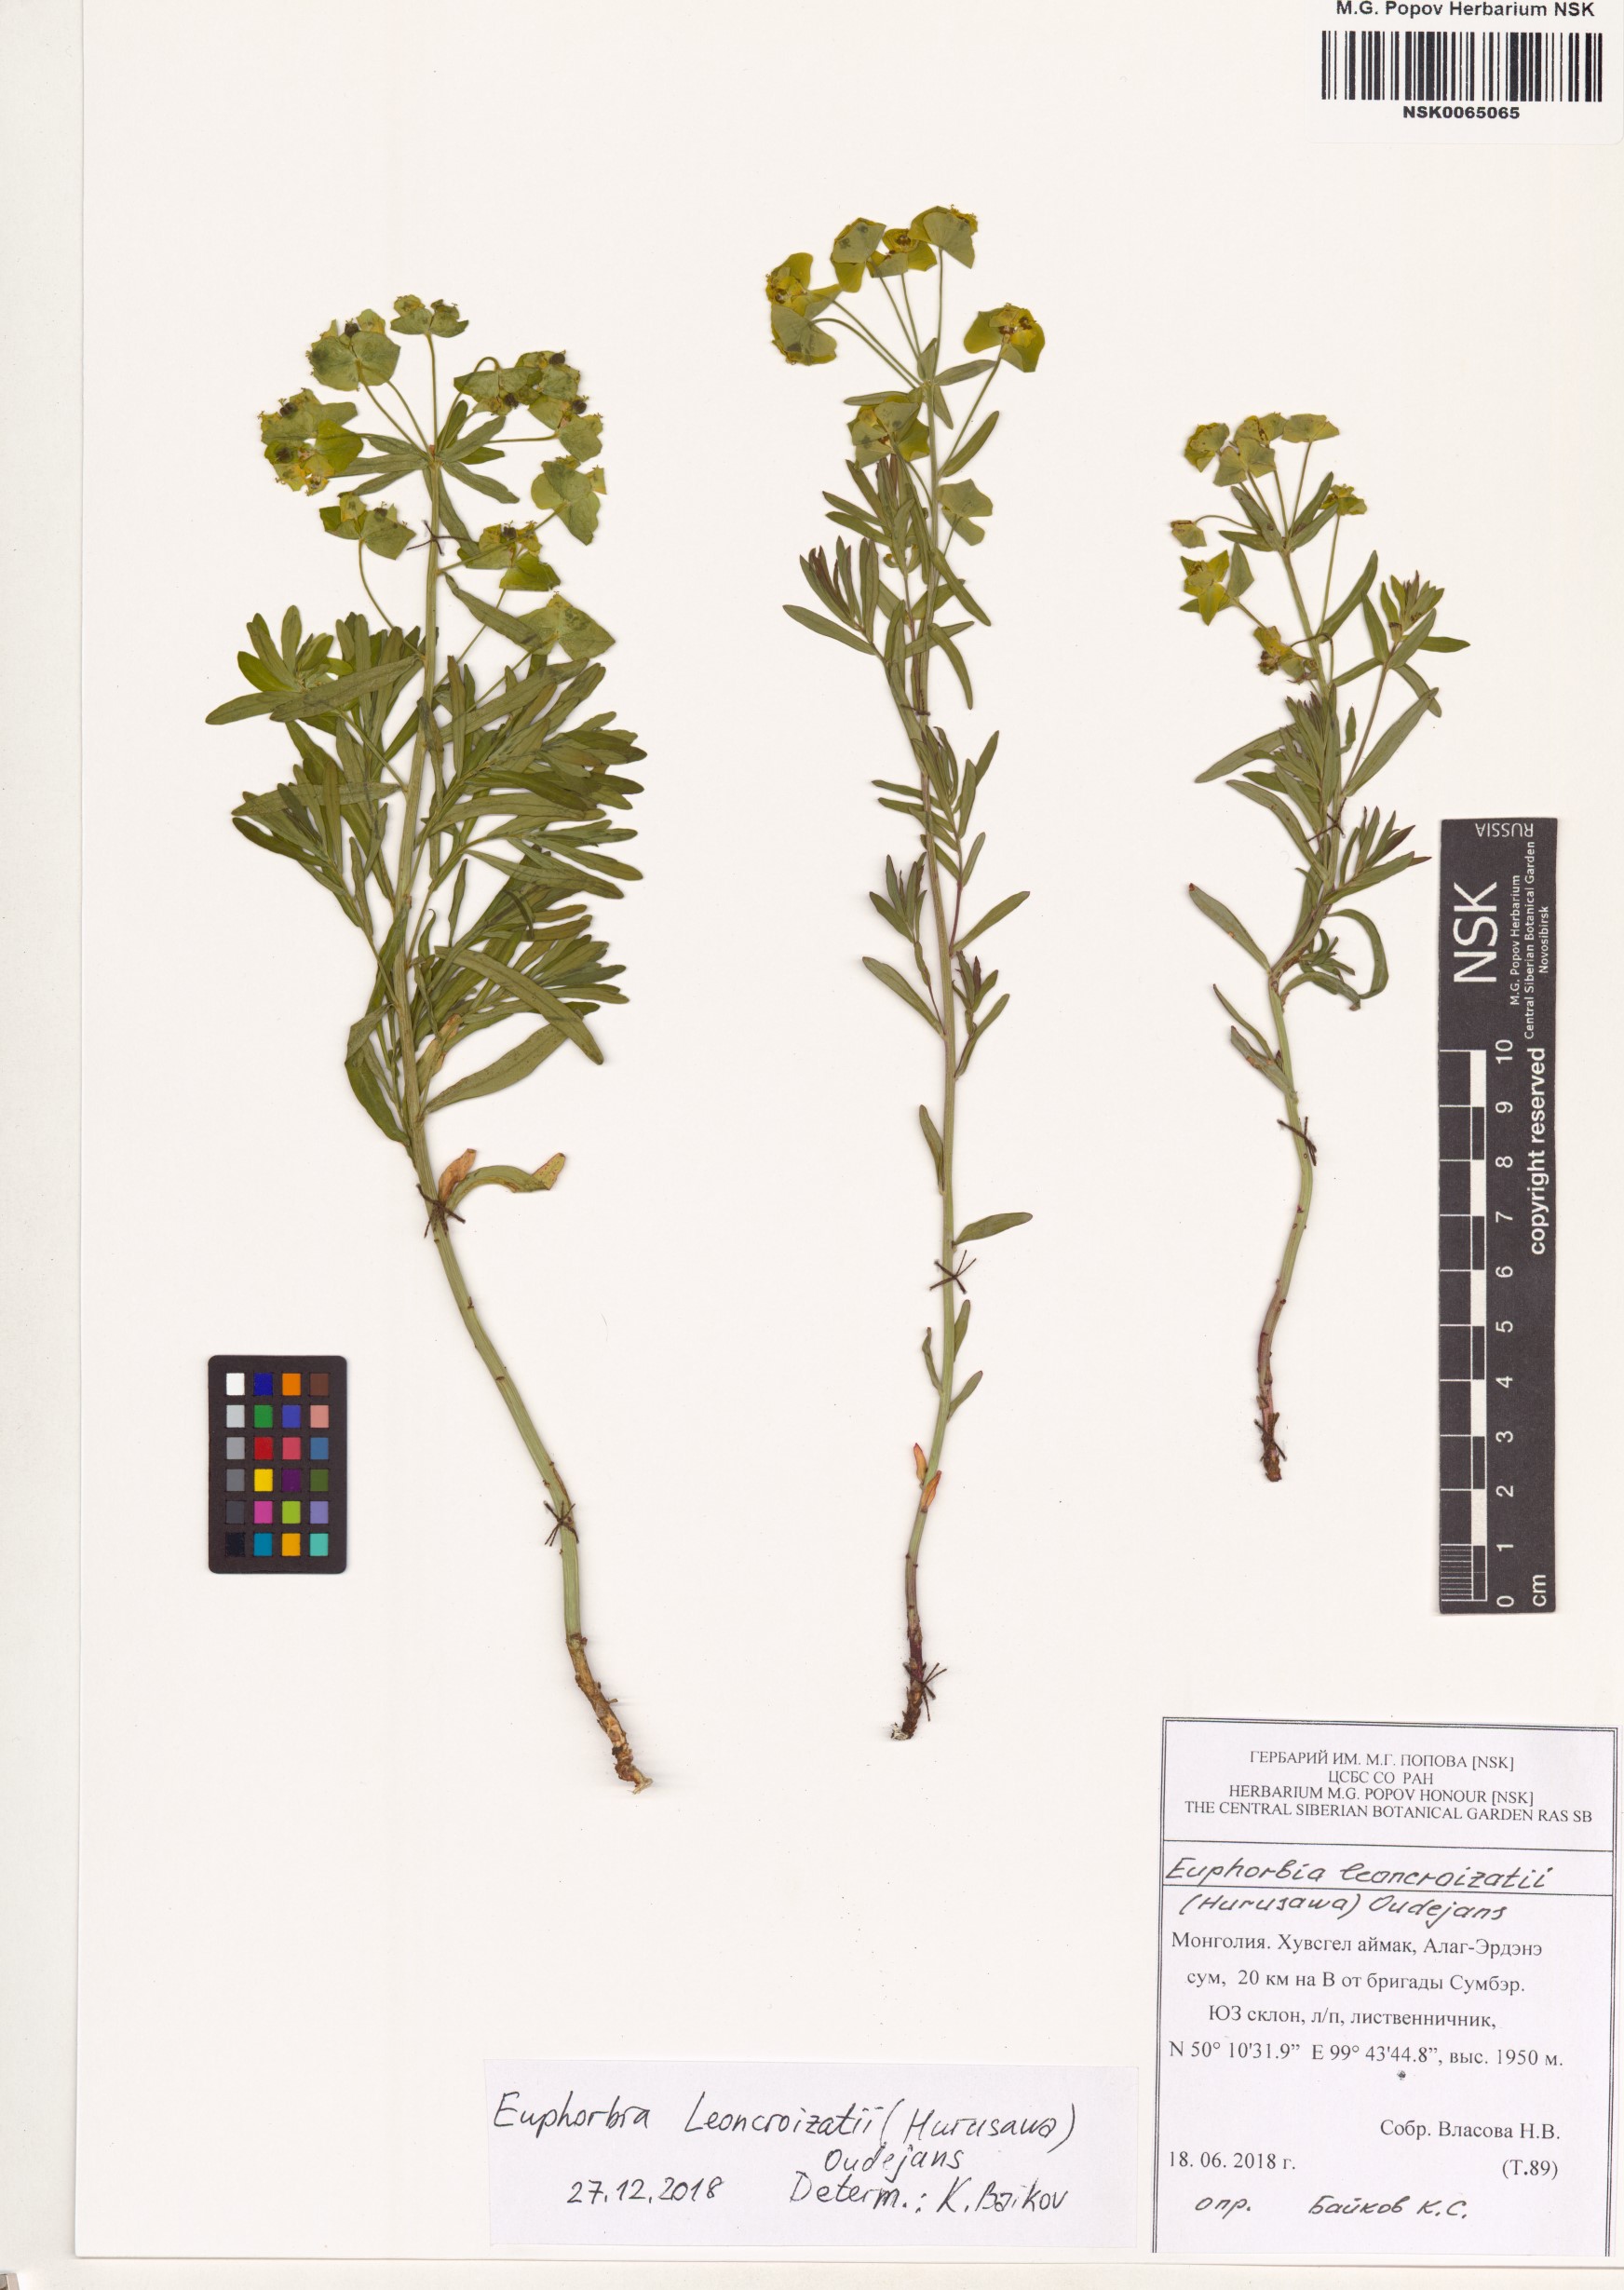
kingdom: Plantae
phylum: Tracheophyta
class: Magnoliopsida
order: Malpighiales
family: Euphorbiaceae
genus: Euphorbia
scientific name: Euphorbia esula
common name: Leafy spurge
